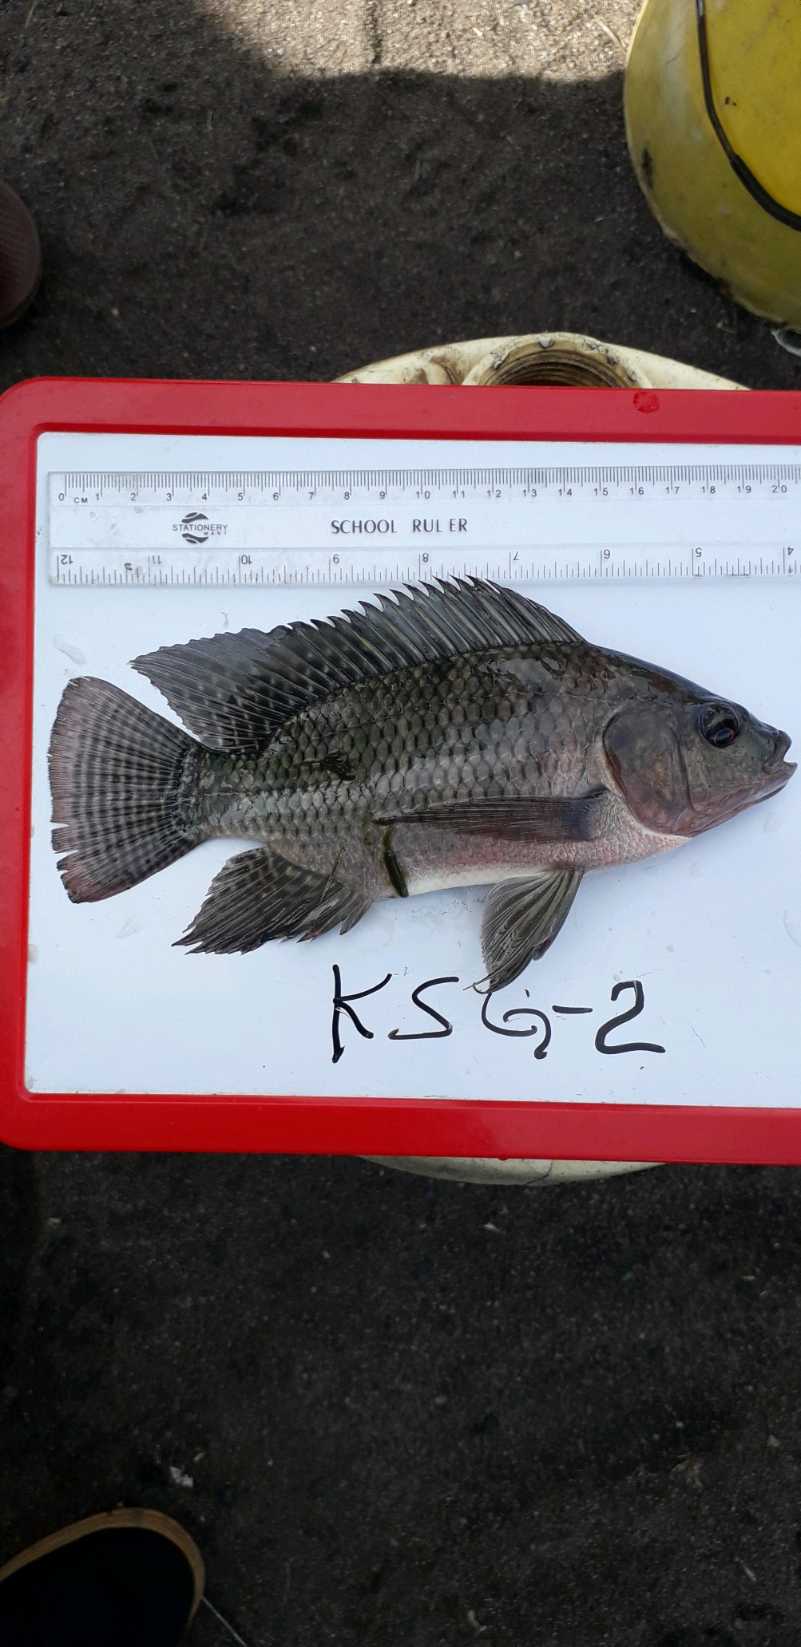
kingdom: Animalia
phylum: Chordata
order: Perciformes
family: Cichlidae
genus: Oreochromis
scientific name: Oreochromis niloticus
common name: Nile tilapia
